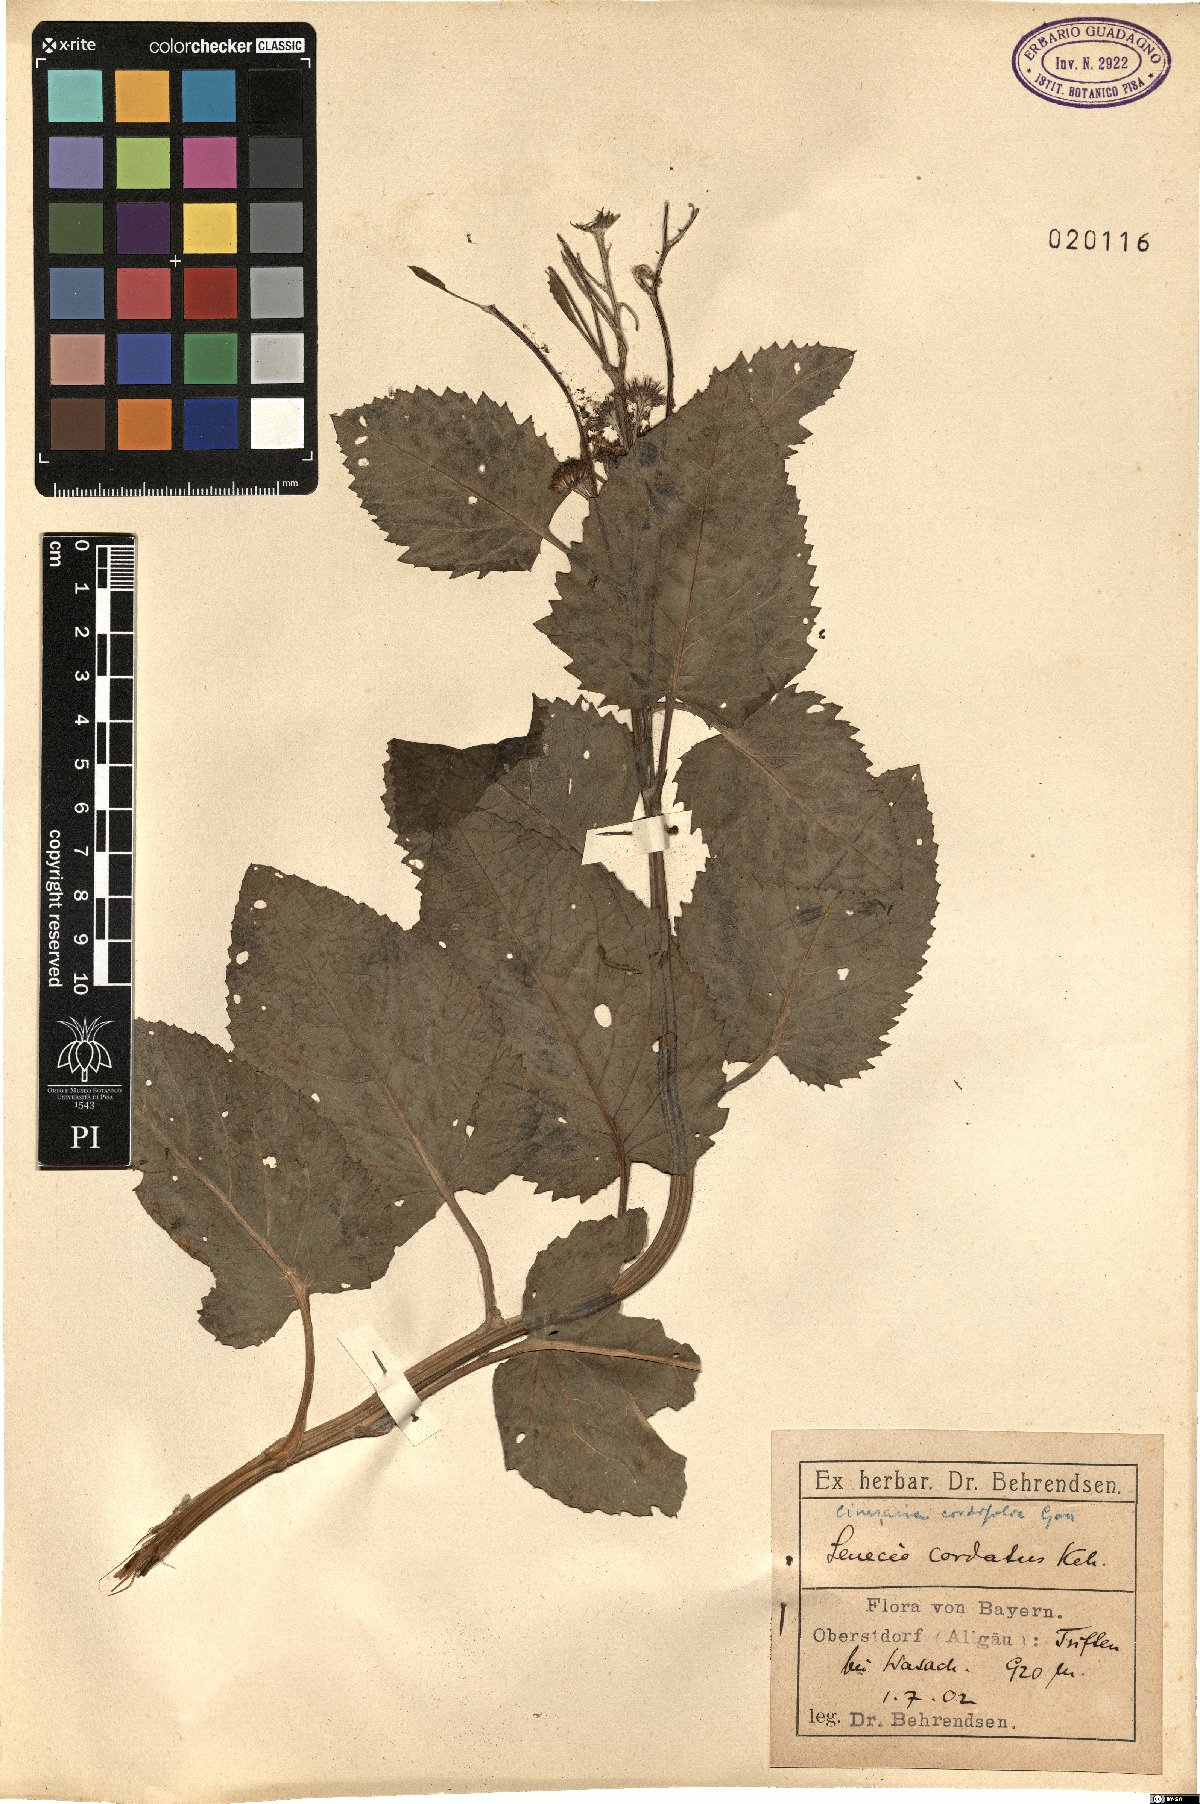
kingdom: Plantae
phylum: Tracheophyta
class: Magnoliopsida
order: Asterales
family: Asteraceae
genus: Jacobaea
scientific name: Jacobaea alpina
